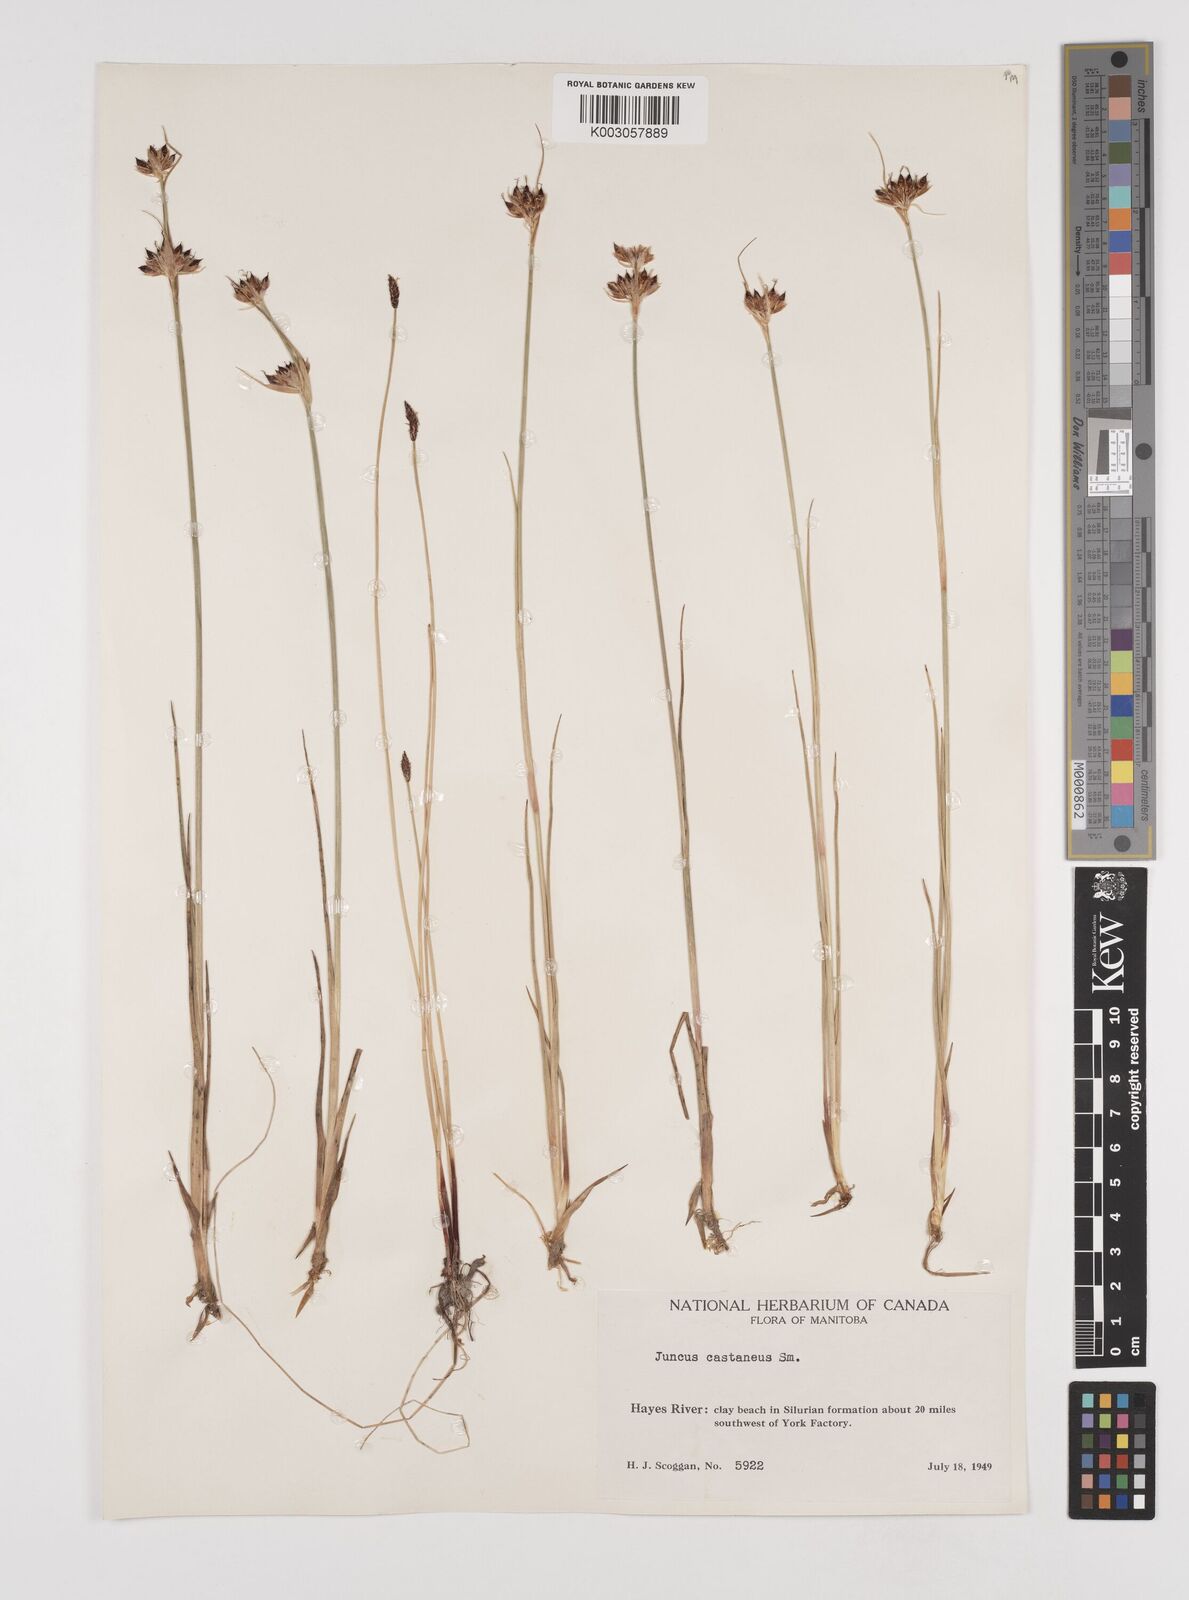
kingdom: Plantae
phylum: Tracheophyta
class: Liliopsida
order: Poales
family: Juncaceae
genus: Juncus
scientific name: Juncus castaneus
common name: Chestnut rush
